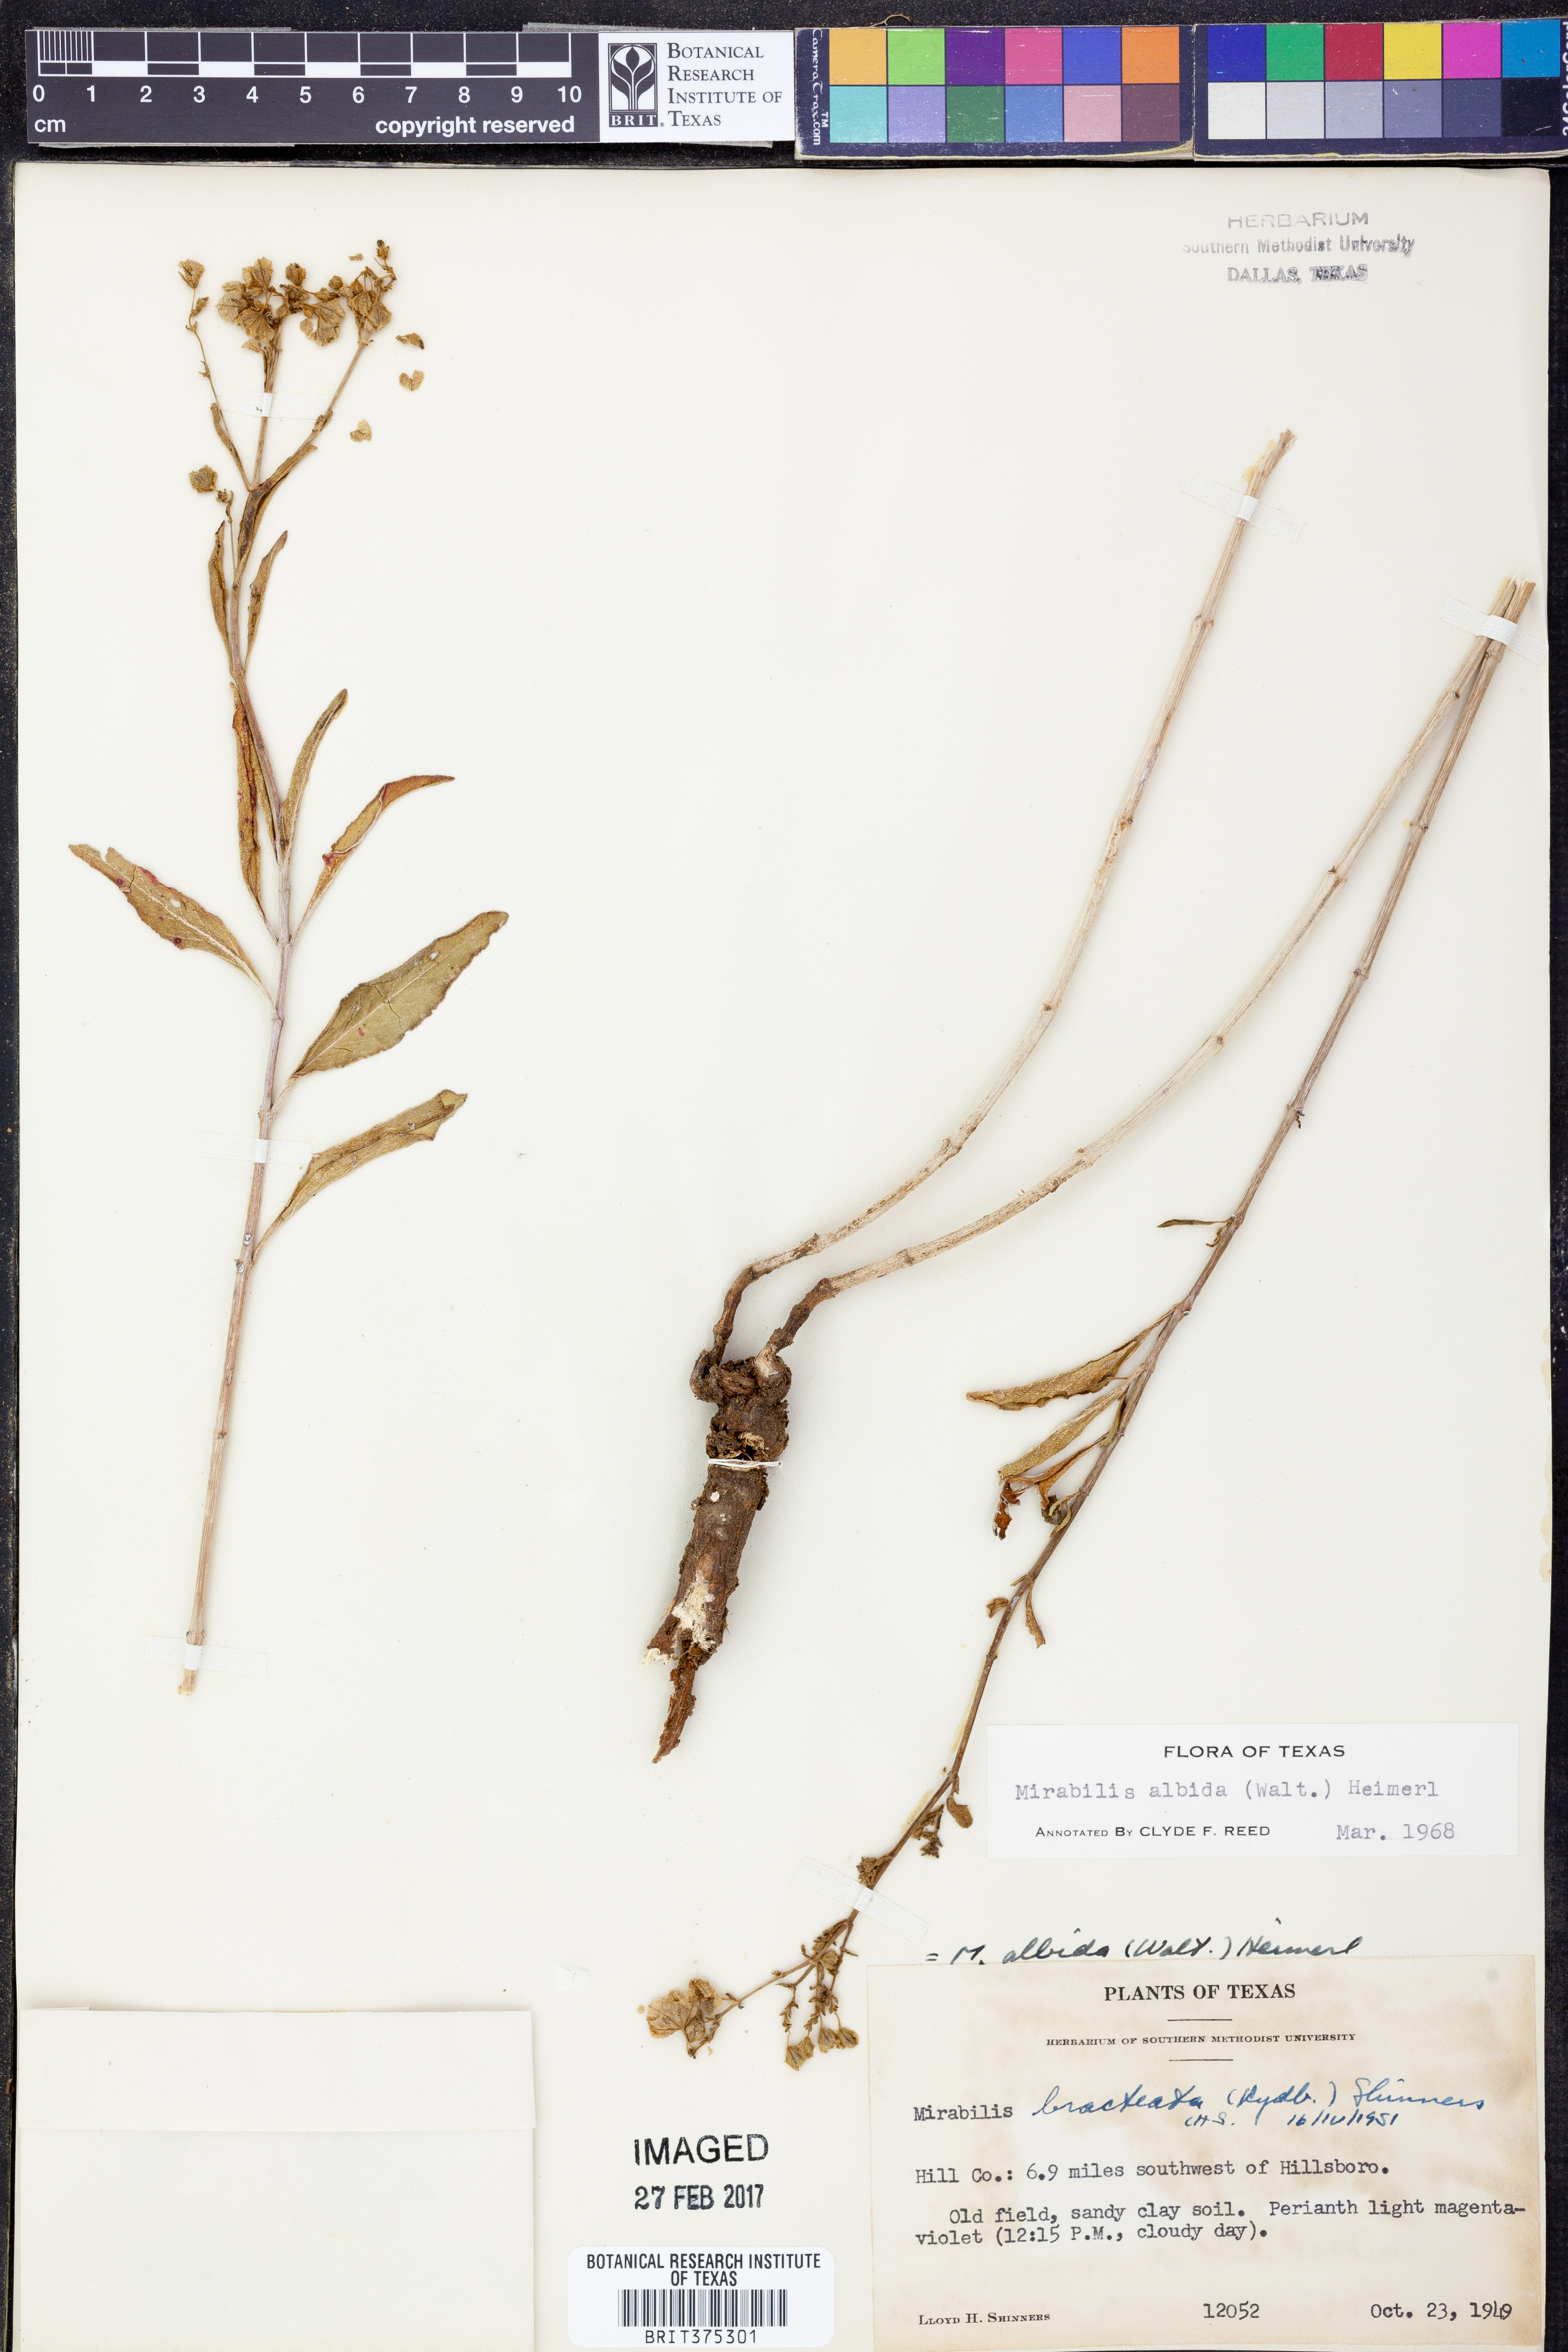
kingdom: Plantae
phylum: Tracheophyta
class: Magnoliopsida
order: Caryophyllales
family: Nyctaginaceae
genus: Mirabilis
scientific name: Mirabilis albida
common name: Hairy four-o'clock
